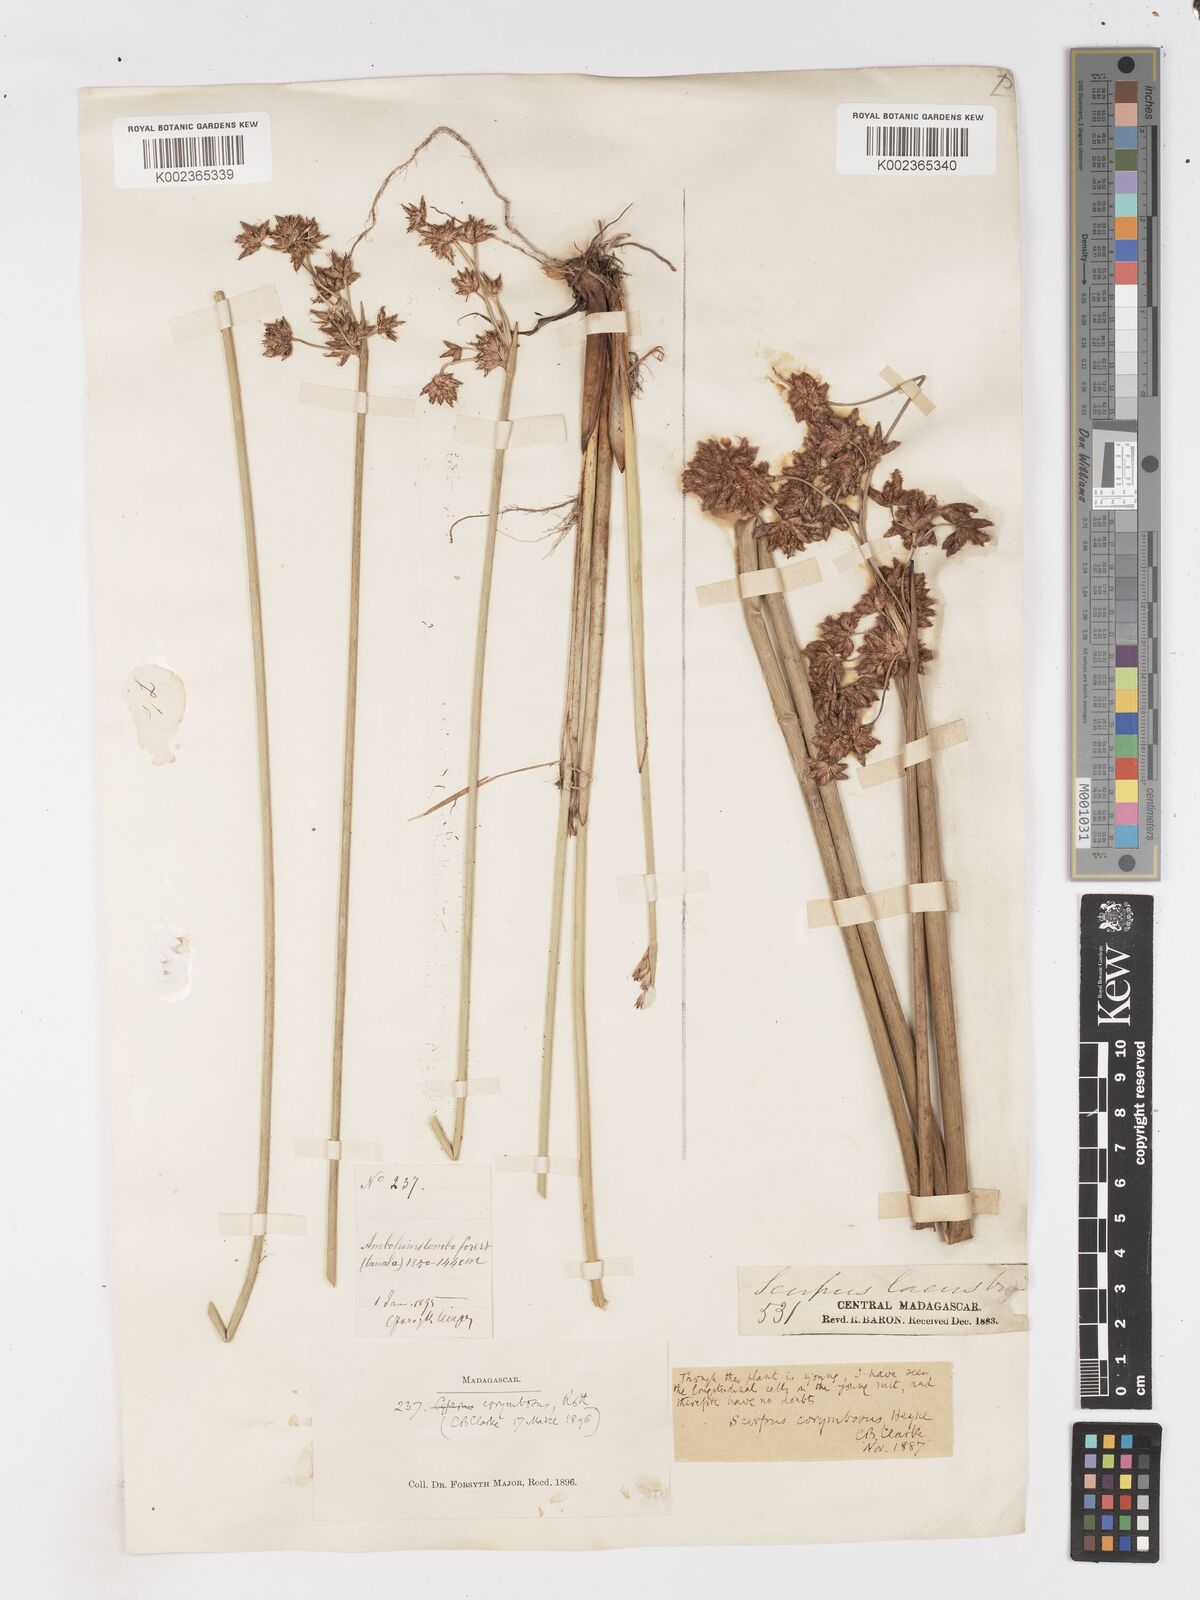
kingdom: Plantae
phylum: Tracheophyta
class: Liliopsida
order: Poales
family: Cyperaceae
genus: Schoenoplectiella
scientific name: Schoenoplectiella corymbosa
